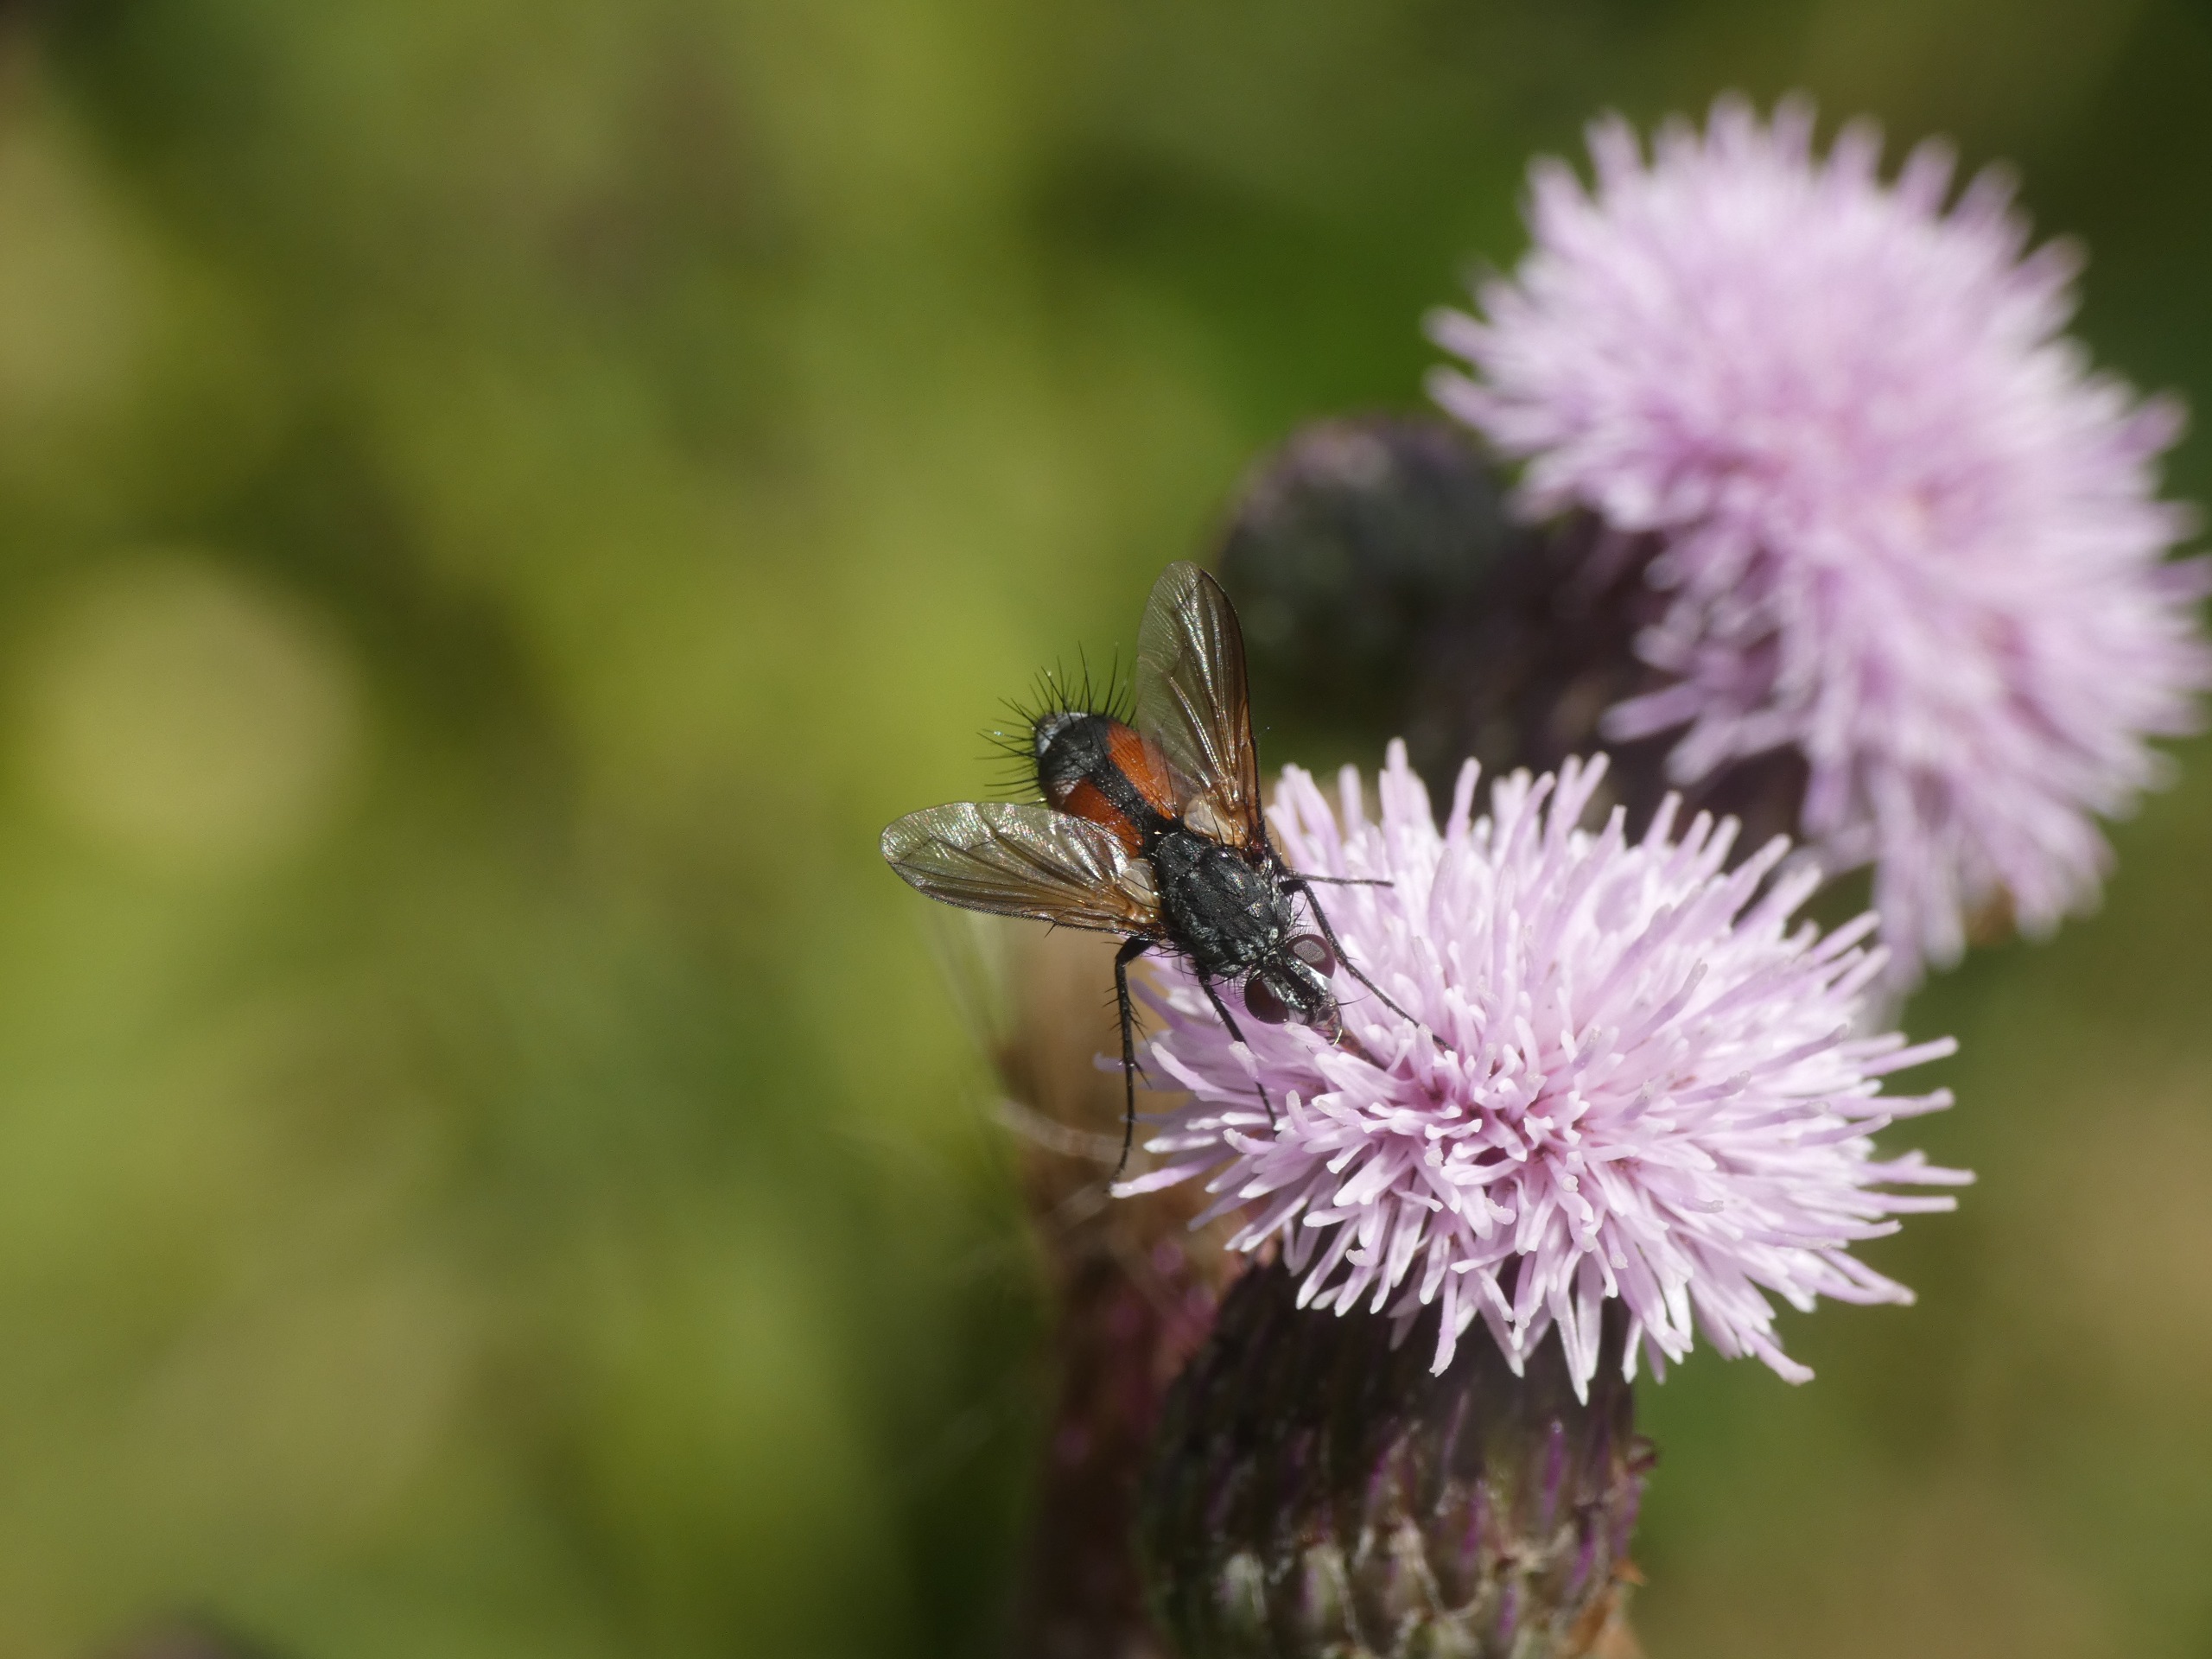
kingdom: Animalia
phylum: Arthropoda
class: Insecta
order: Diptera
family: Tachinidae
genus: Eriothrix
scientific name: Eriothrix rufomaculatus
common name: Rød snylteflue
